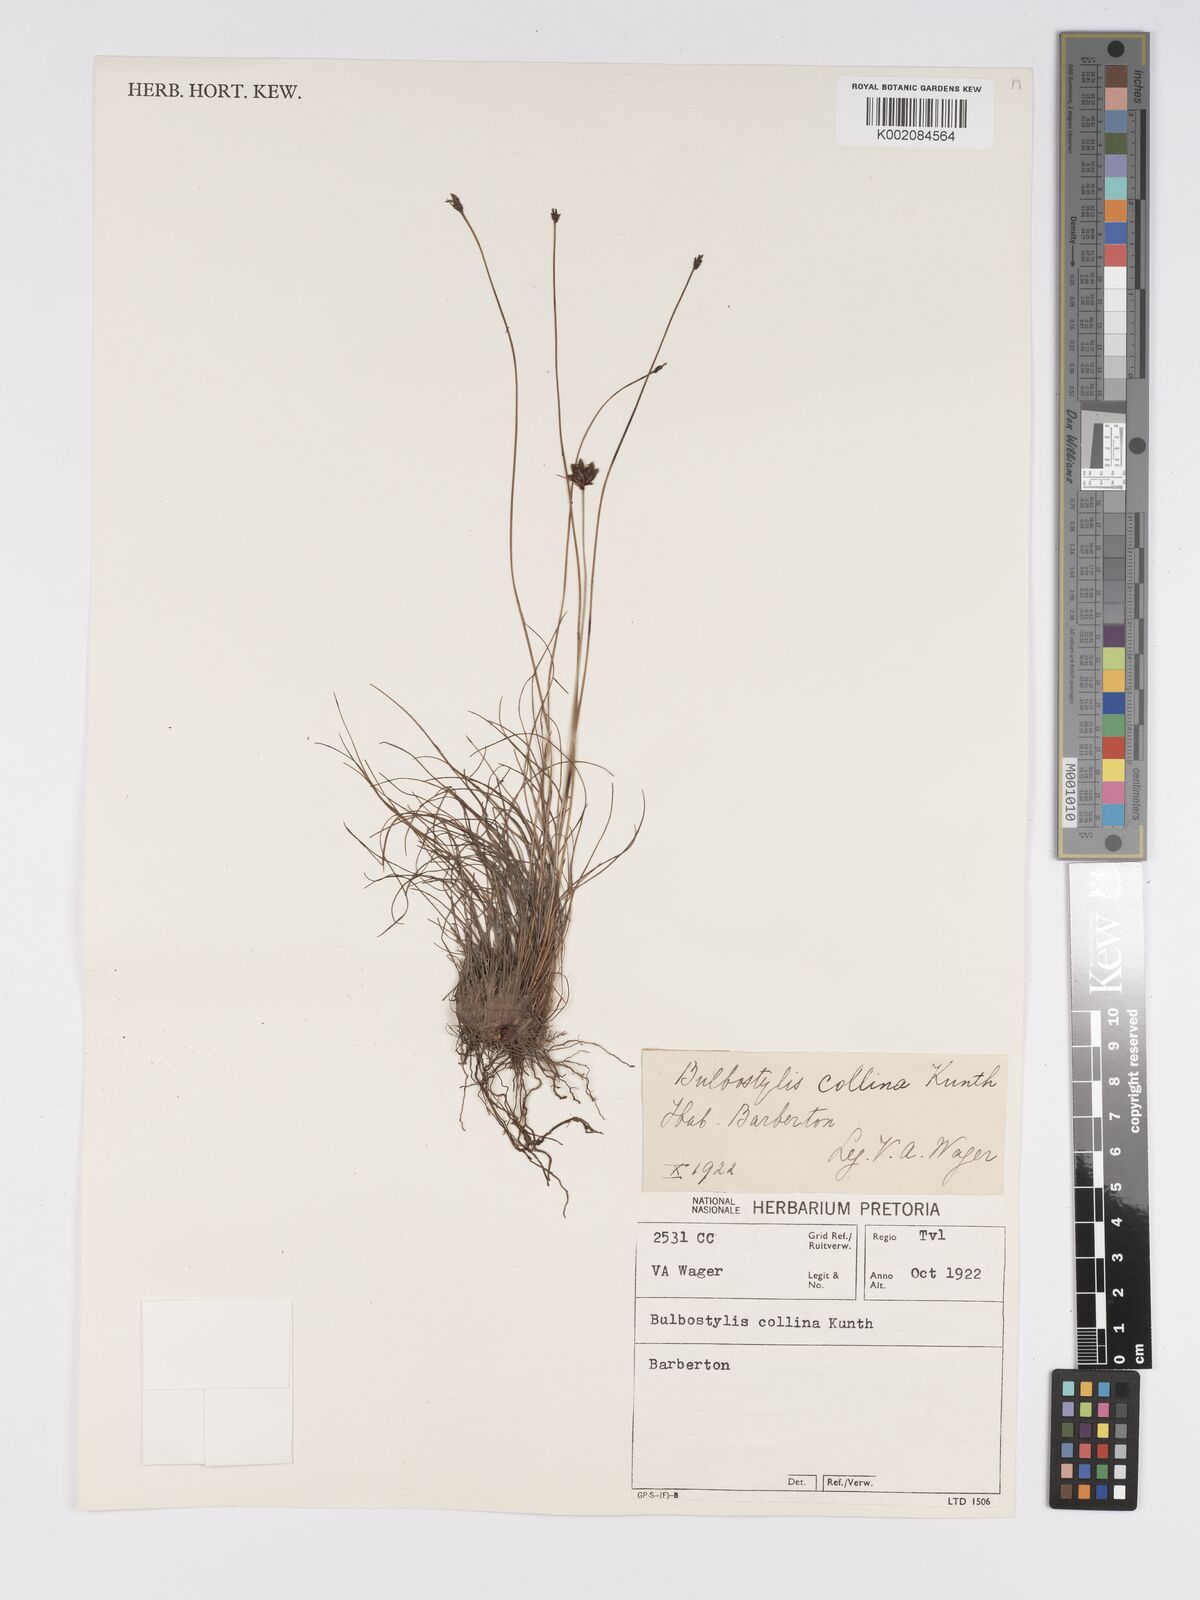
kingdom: Plantae
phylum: Tracheophyta
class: Liliopsida
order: Poales
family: Cyperaceae
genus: Bulbostylis
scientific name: Bulbostylis contexta
